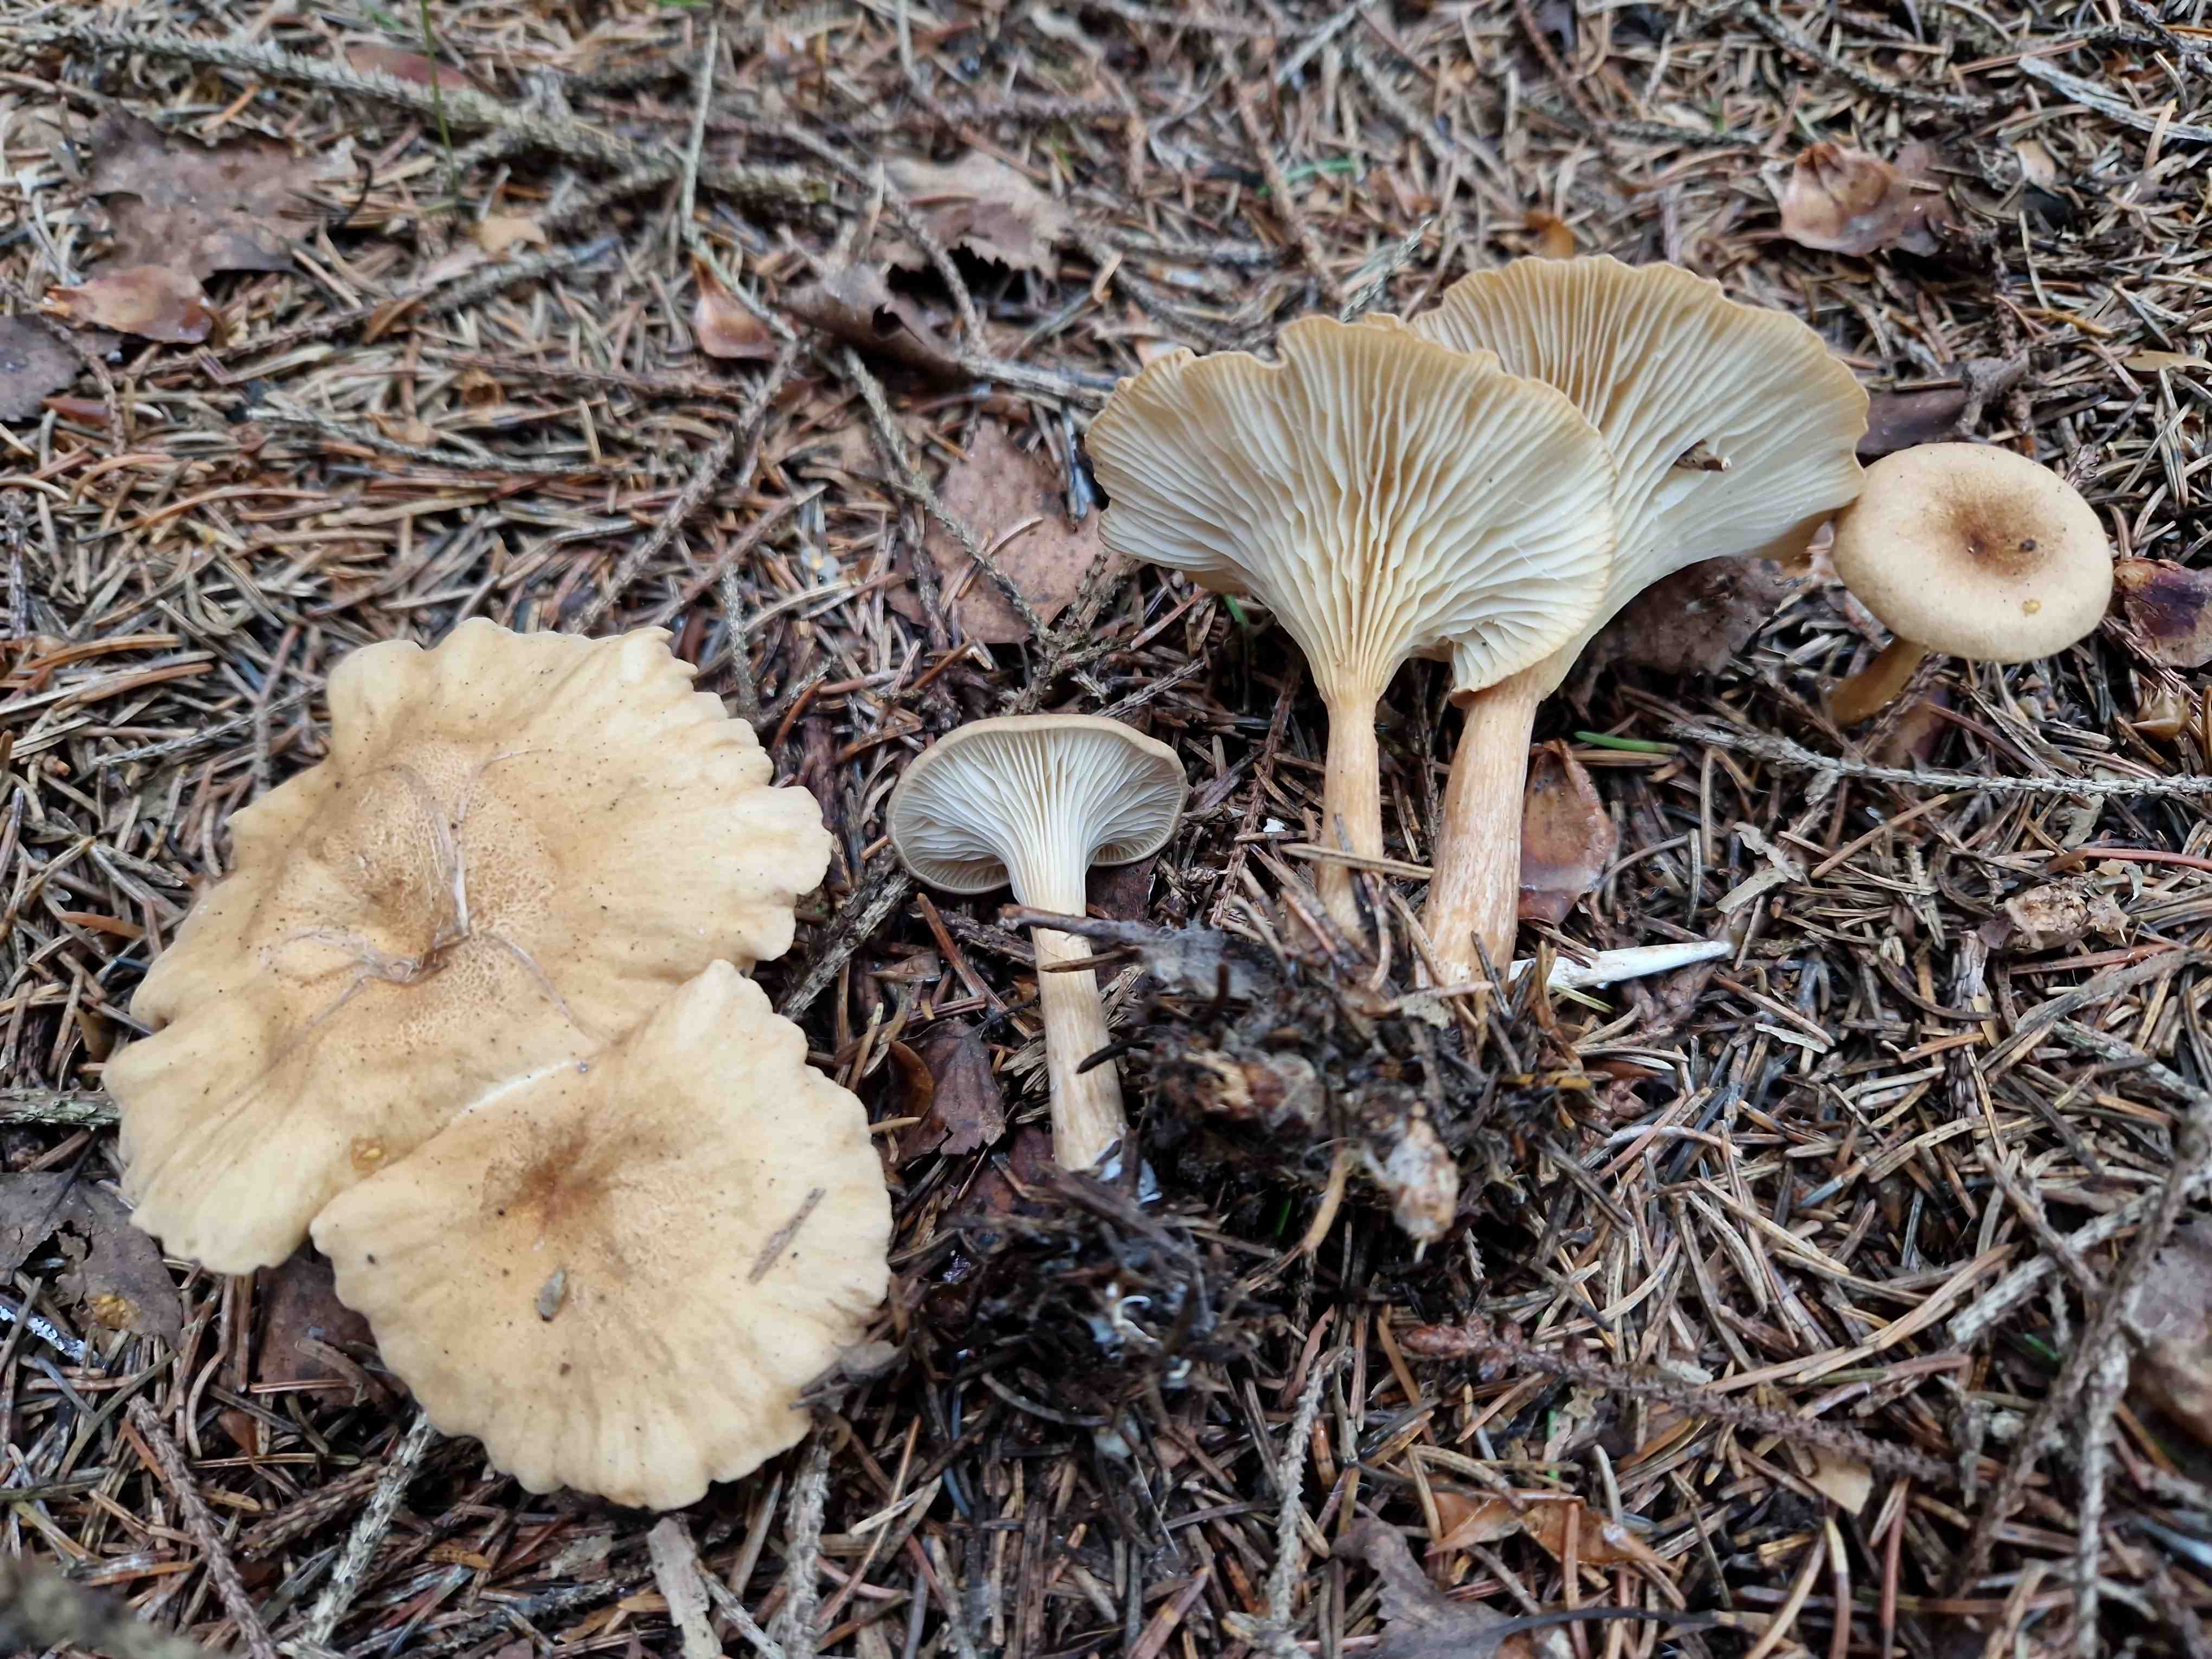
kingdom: Fungi
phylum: Basidiomycota
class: Agaricomycetes
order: Agaricales
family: Tricholomataceae
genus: Infundibulicybe
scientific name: Infundibulicybe squamulosa
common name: småskællet tragthat
